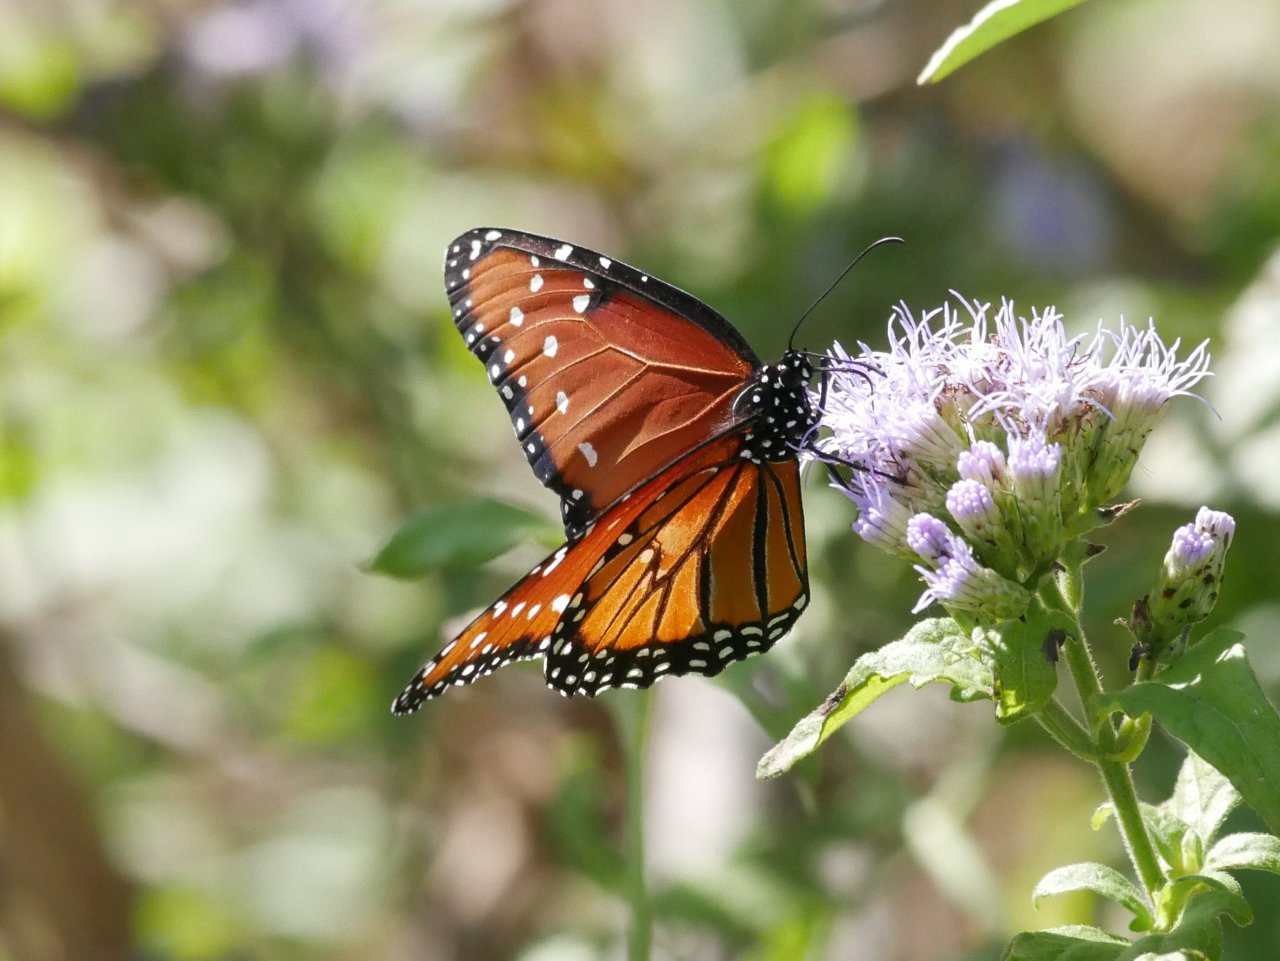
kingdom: Animalia
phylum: Arthropoda
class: Insecta
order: Lepidoptera
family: Nymphalidae
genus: Danaus
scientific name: Danaus gilippus
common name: Queen
